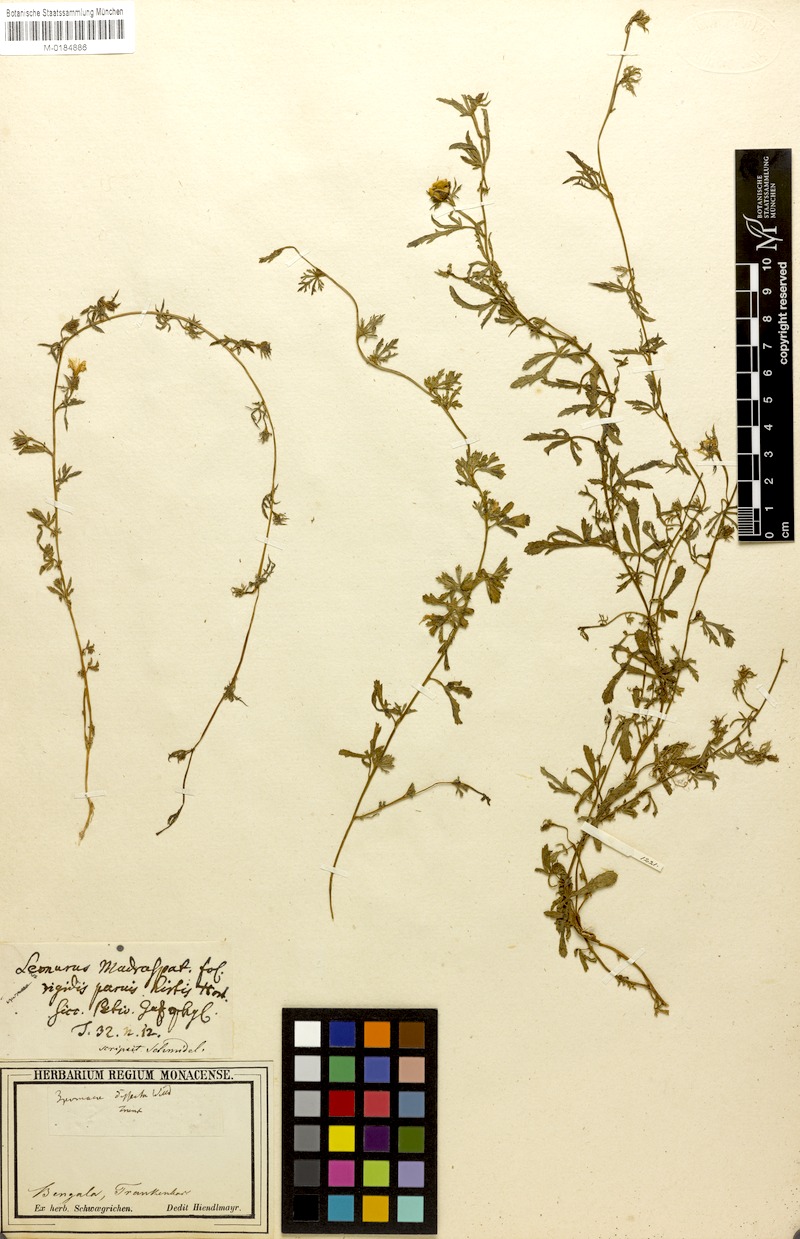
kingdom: Plantae
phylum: Tracheophyta
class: Magnoliopsida
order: Solanales
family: Convolvulaceae
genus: Ipomoea
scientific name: Ipomoea coptica
